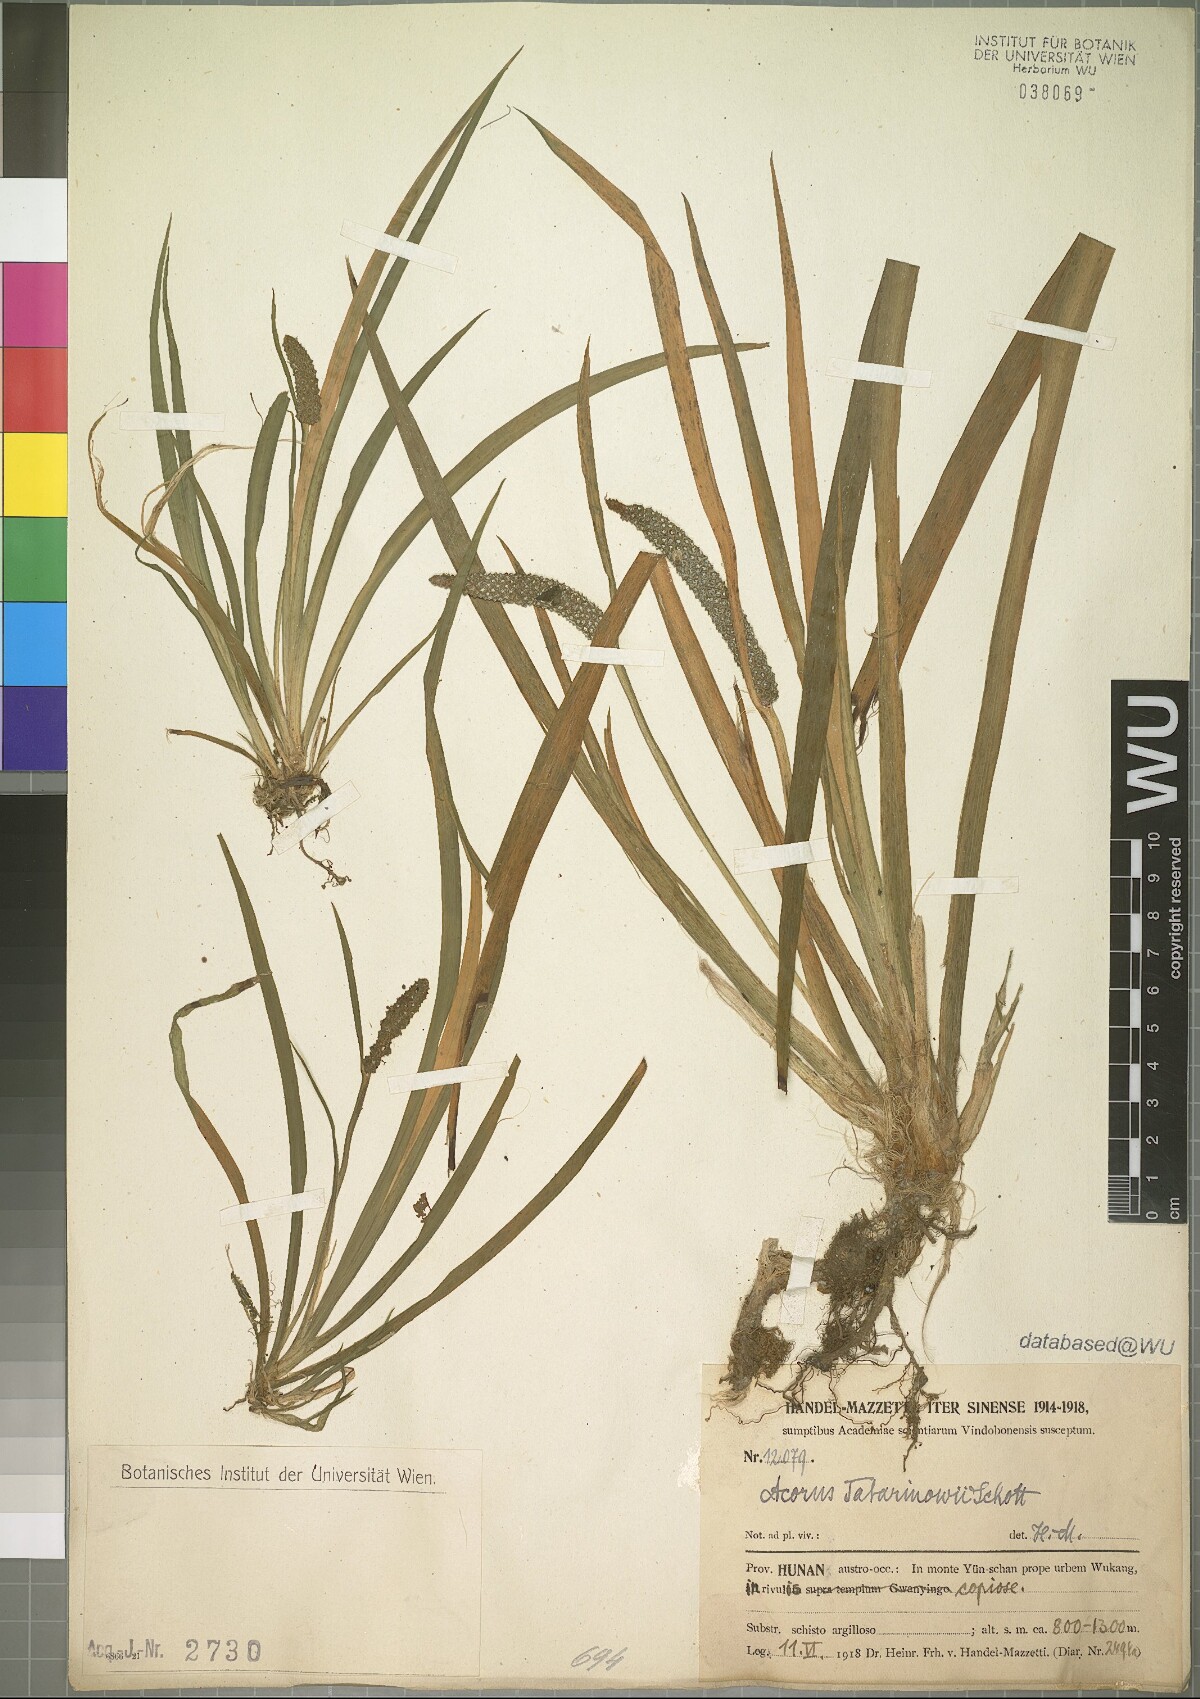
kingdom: Plantae
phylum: Tracheophyta
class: Liliopsida
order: Acorales
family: Acoraceae
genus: Acorus
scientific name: Acorus calamus
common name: Sweet-flag
